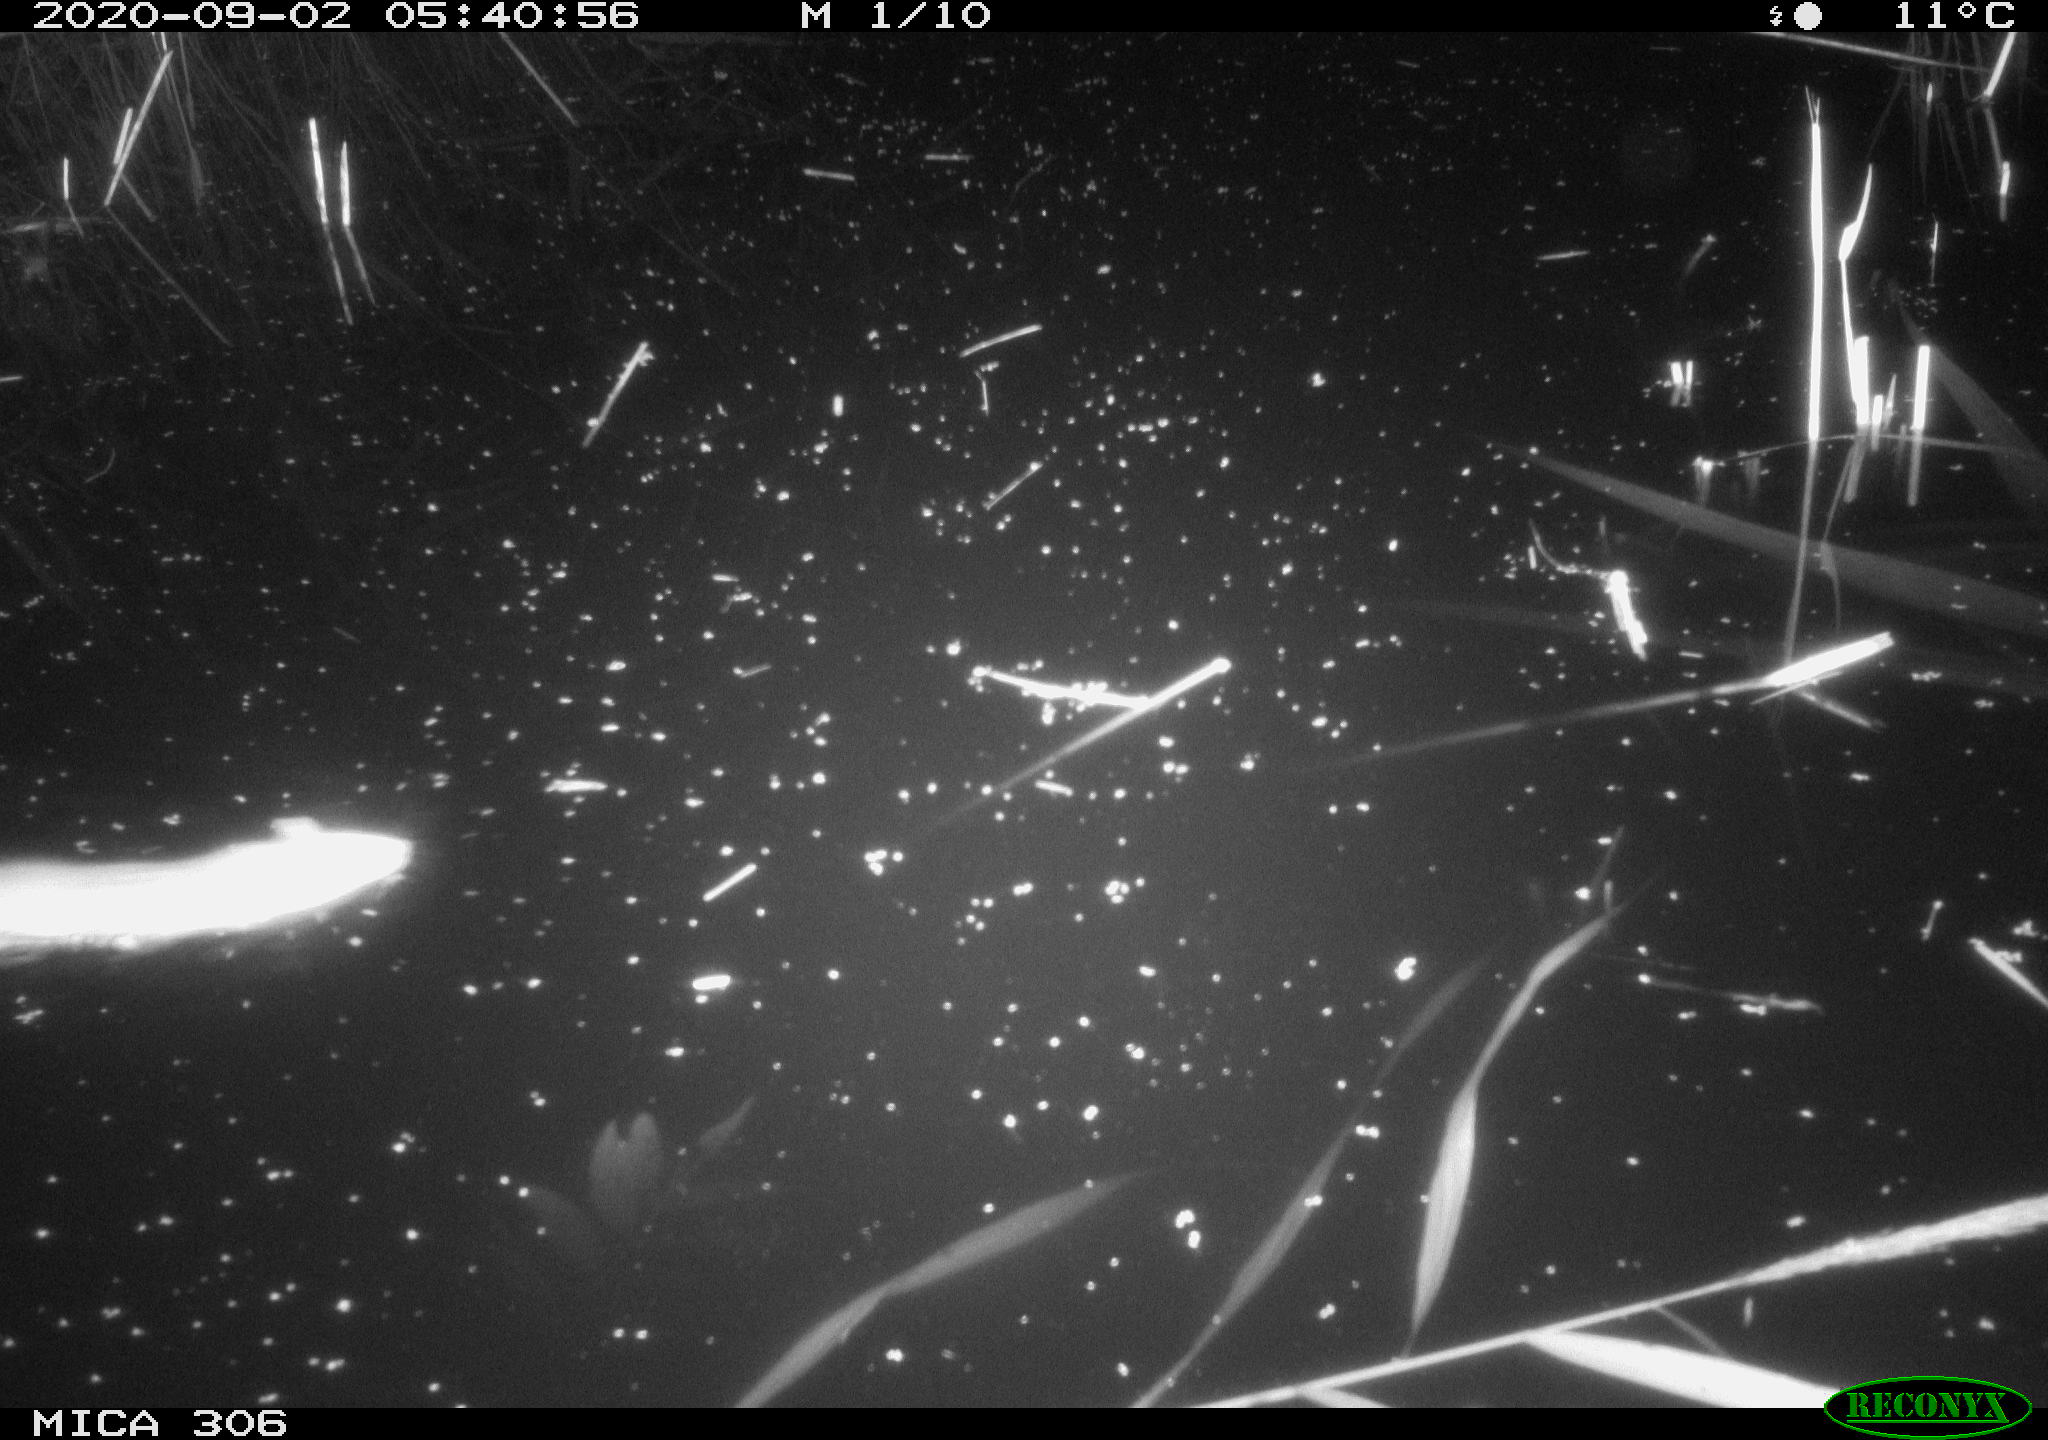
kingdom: Animalia
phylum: Chordata
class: Mammalia
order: Rodentia
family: Muridae
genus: Rattus
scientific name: Rattus norvegicus
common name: Brown rat
